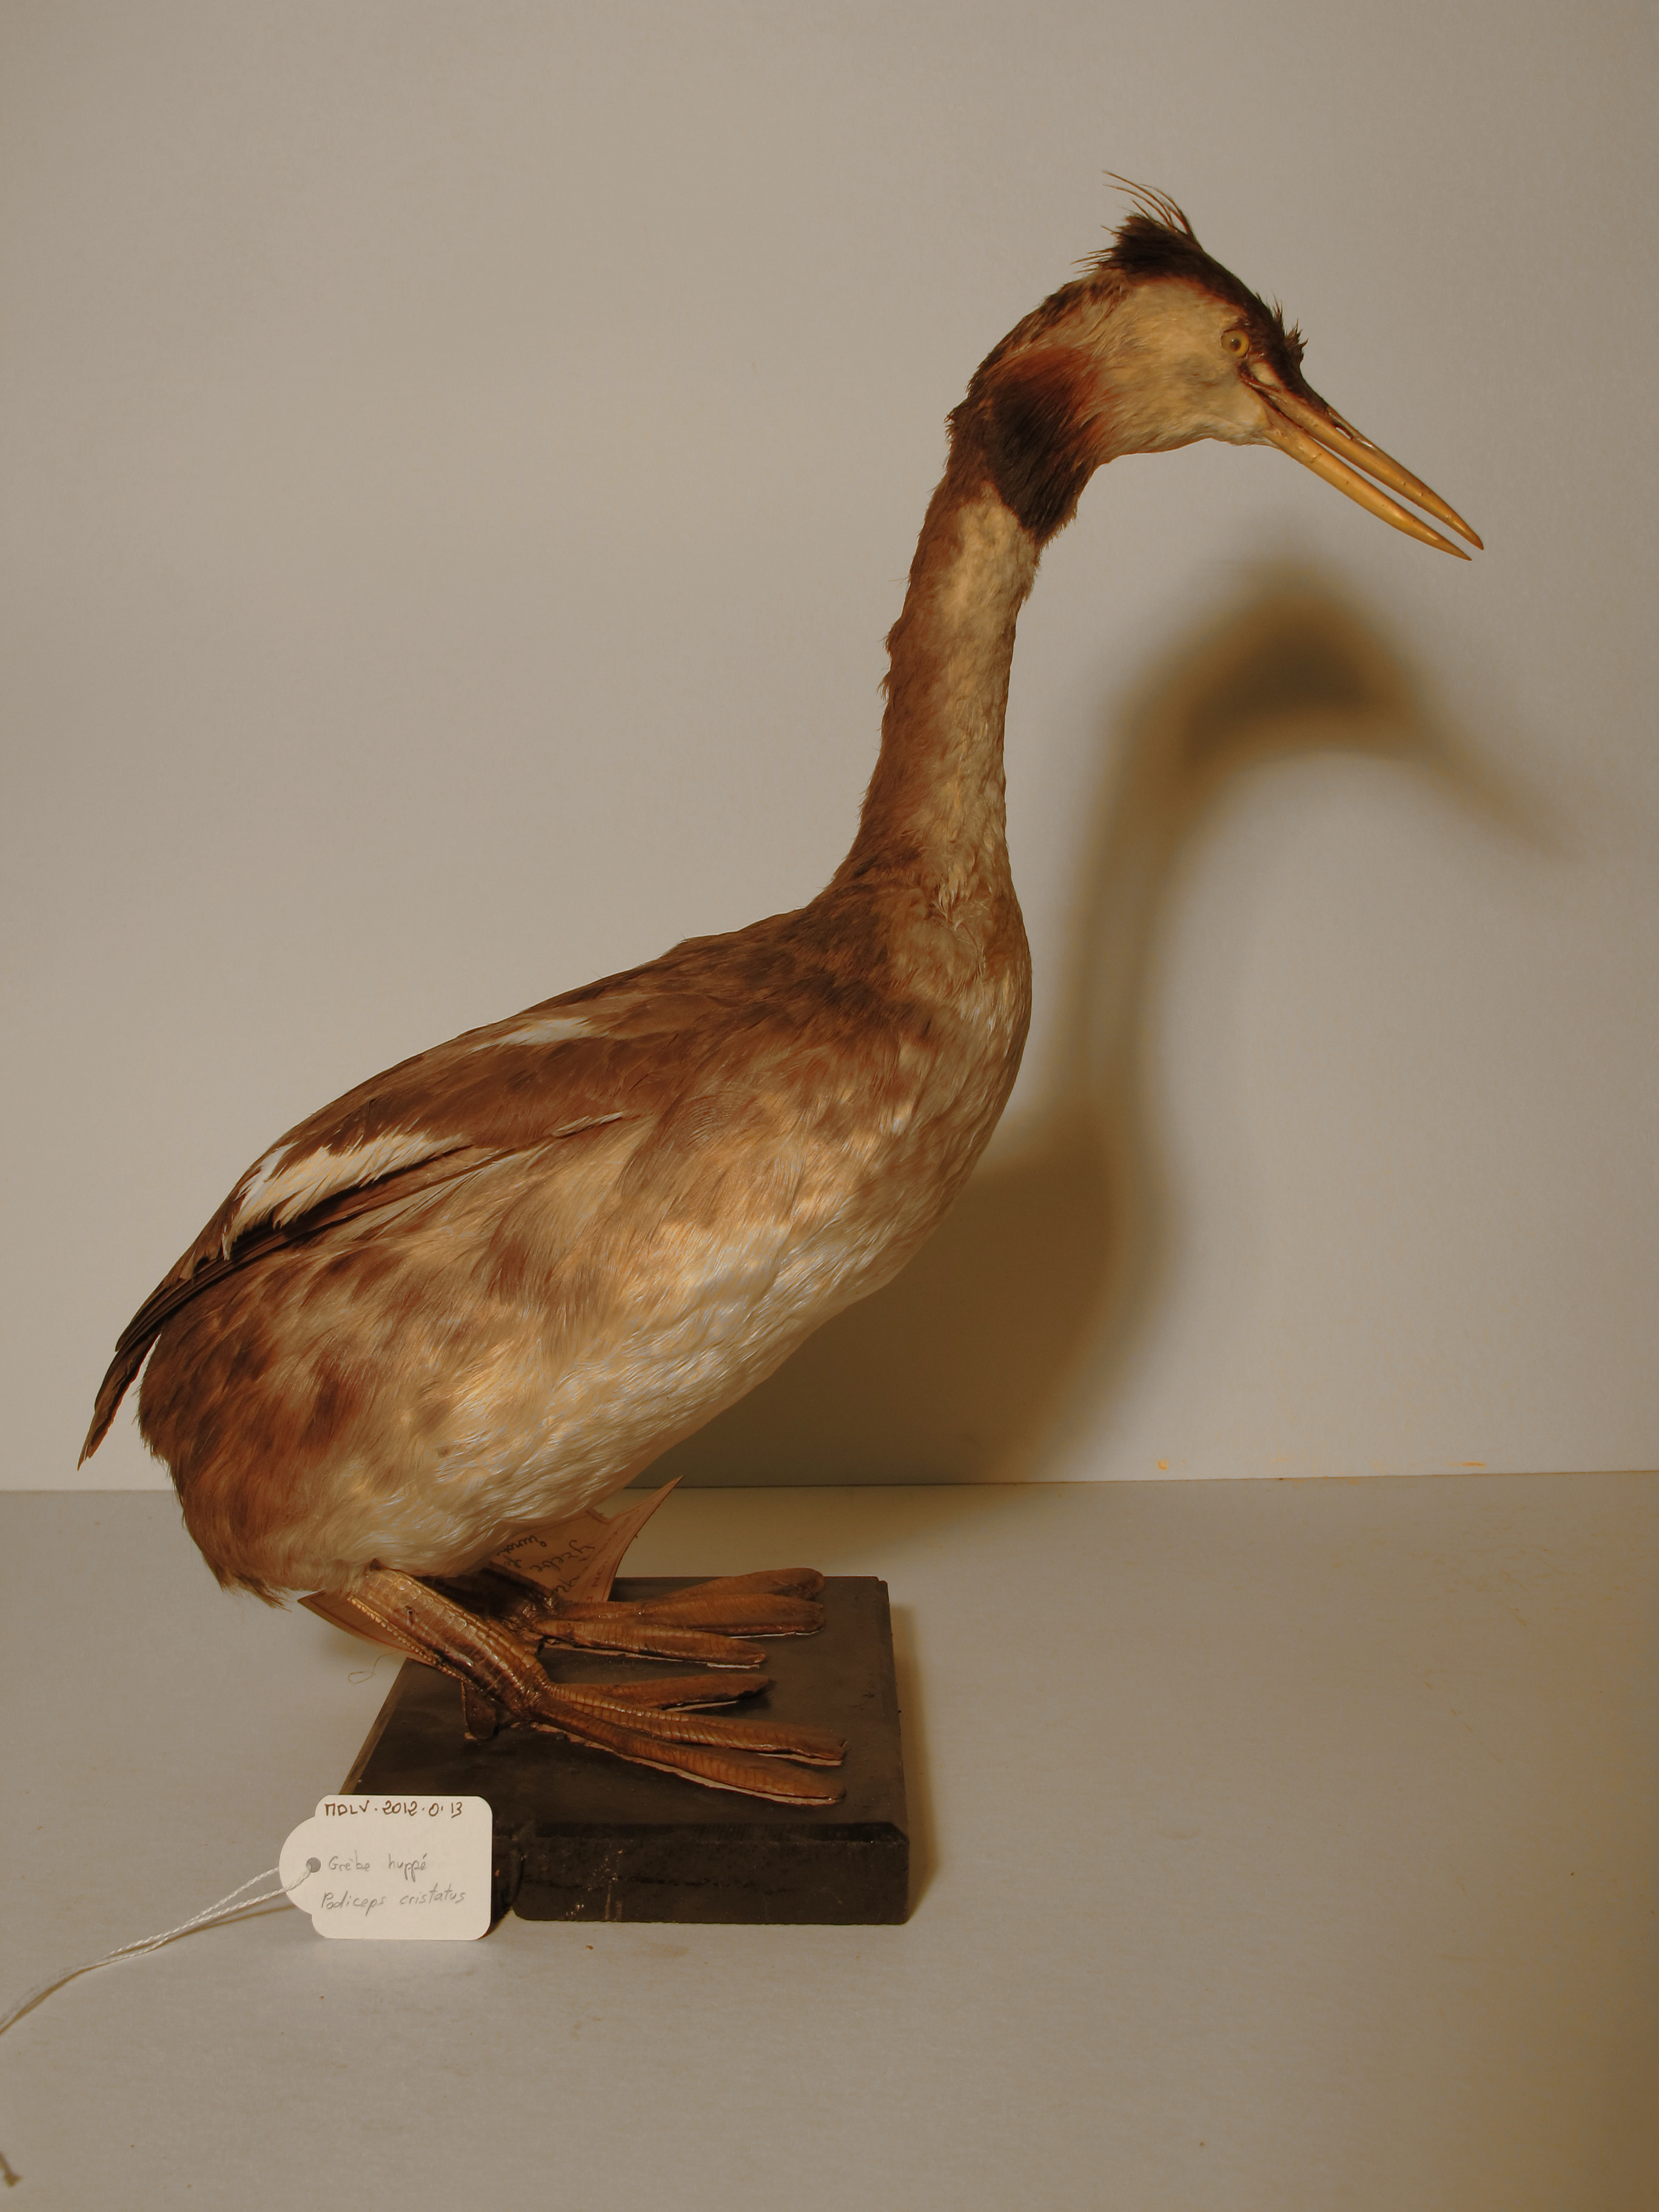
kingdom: Animalia
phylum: Chordata
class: Aves
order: Podicipediformes
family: Podicipedidae
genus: Podiceps
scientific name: Podiceps cristatus
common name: Great Crested grebe
